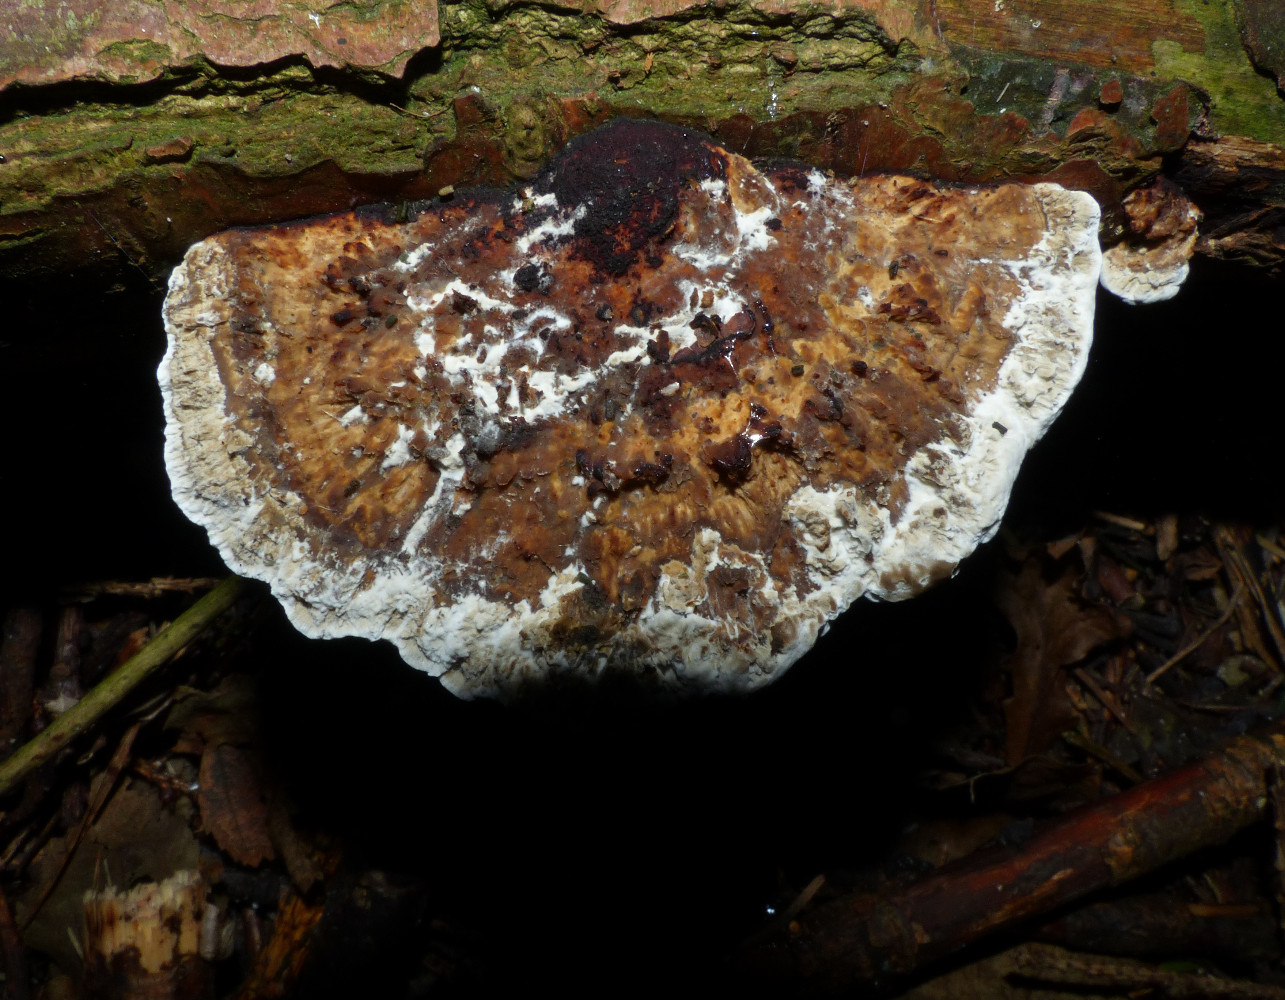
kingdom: Fungi
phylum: Basidiomycota
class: Agaricomycetes
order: Polyporales
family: Polyporaceae
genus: Daedaleopsis
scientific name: Daedaleopsis confragosa
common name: rødmende læderporesvamp
